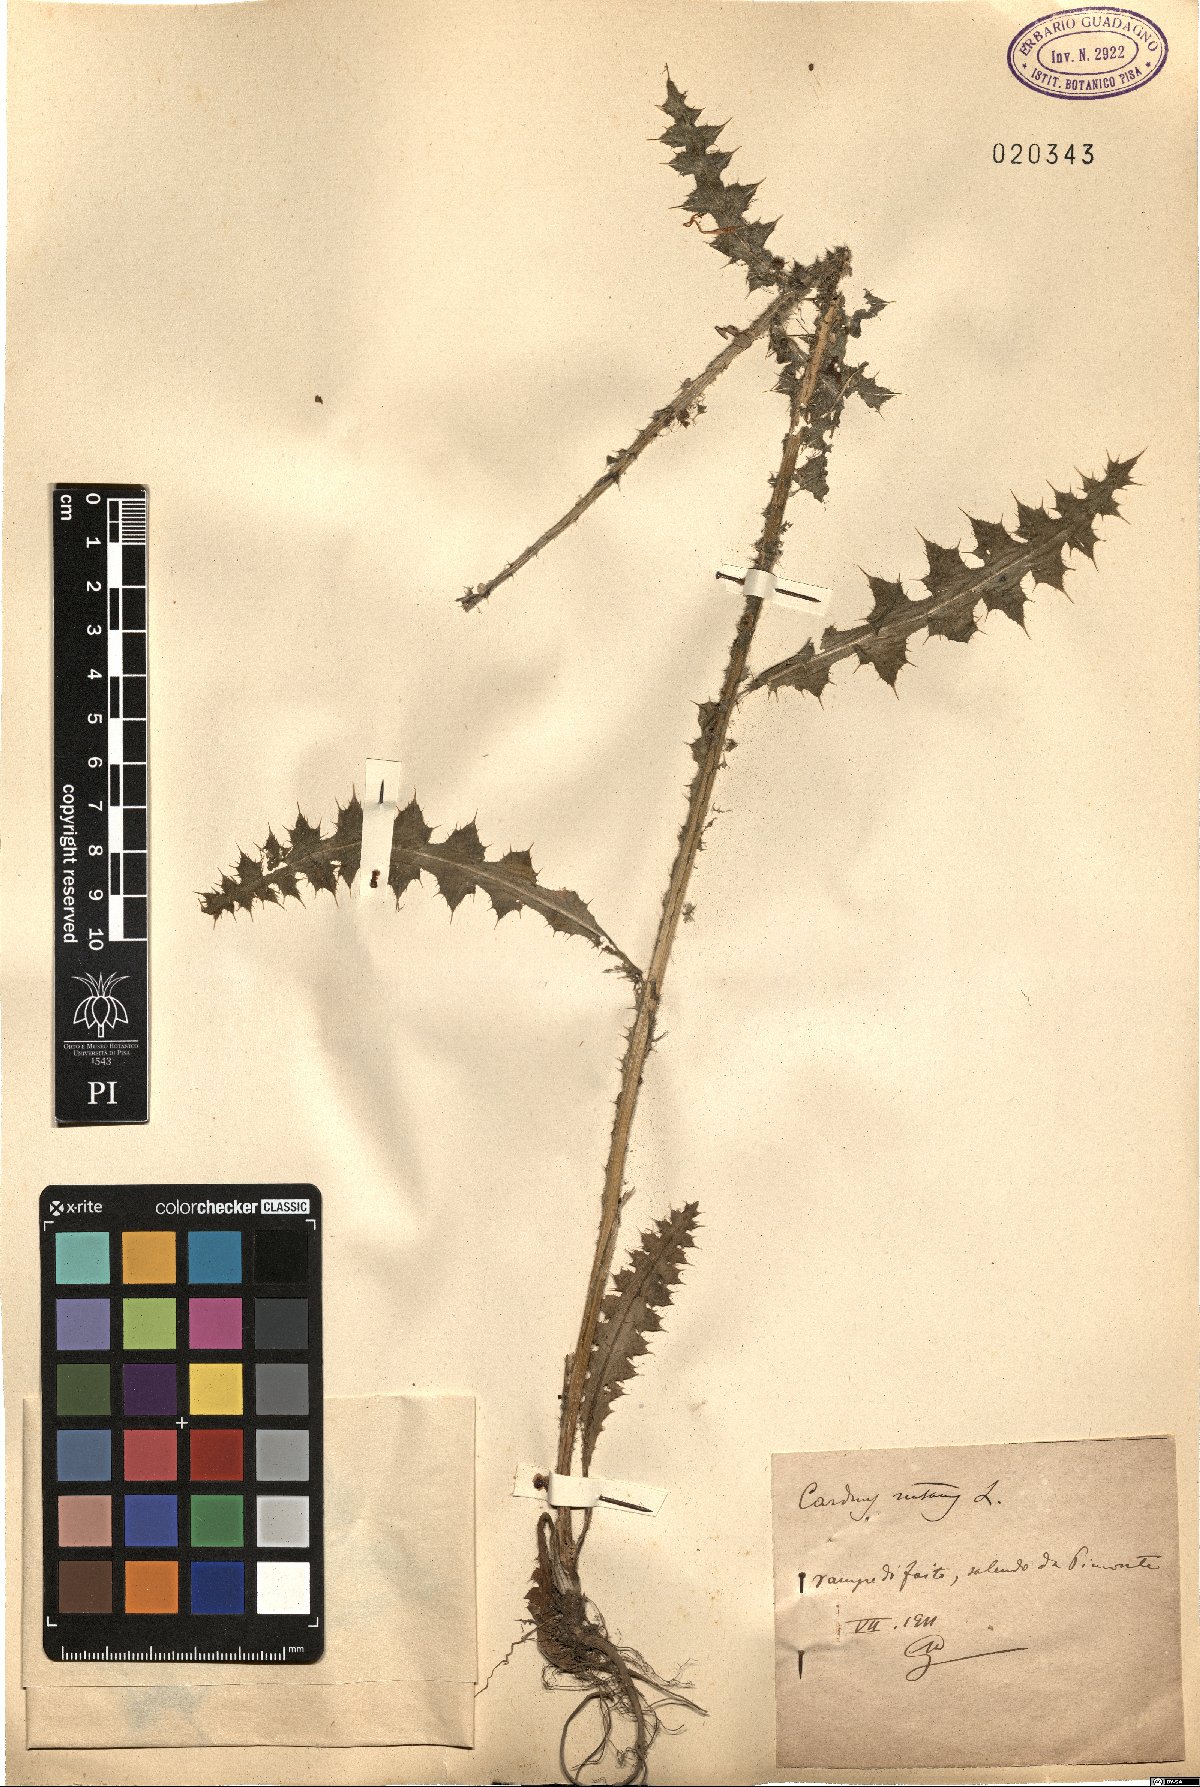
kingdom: Plantae
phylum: Tracheophyta
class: Magnoliopsida
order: Asterales
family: Asteraceae
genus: Carduus
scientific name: Carduus nutans
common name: Musk thistle
